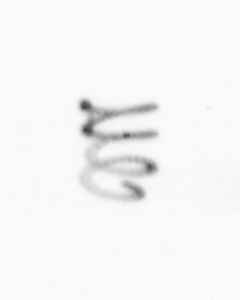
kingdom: Chromista
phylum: Ochrophyta
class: Bacillariophyceae
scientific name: Bacillariophyceae
